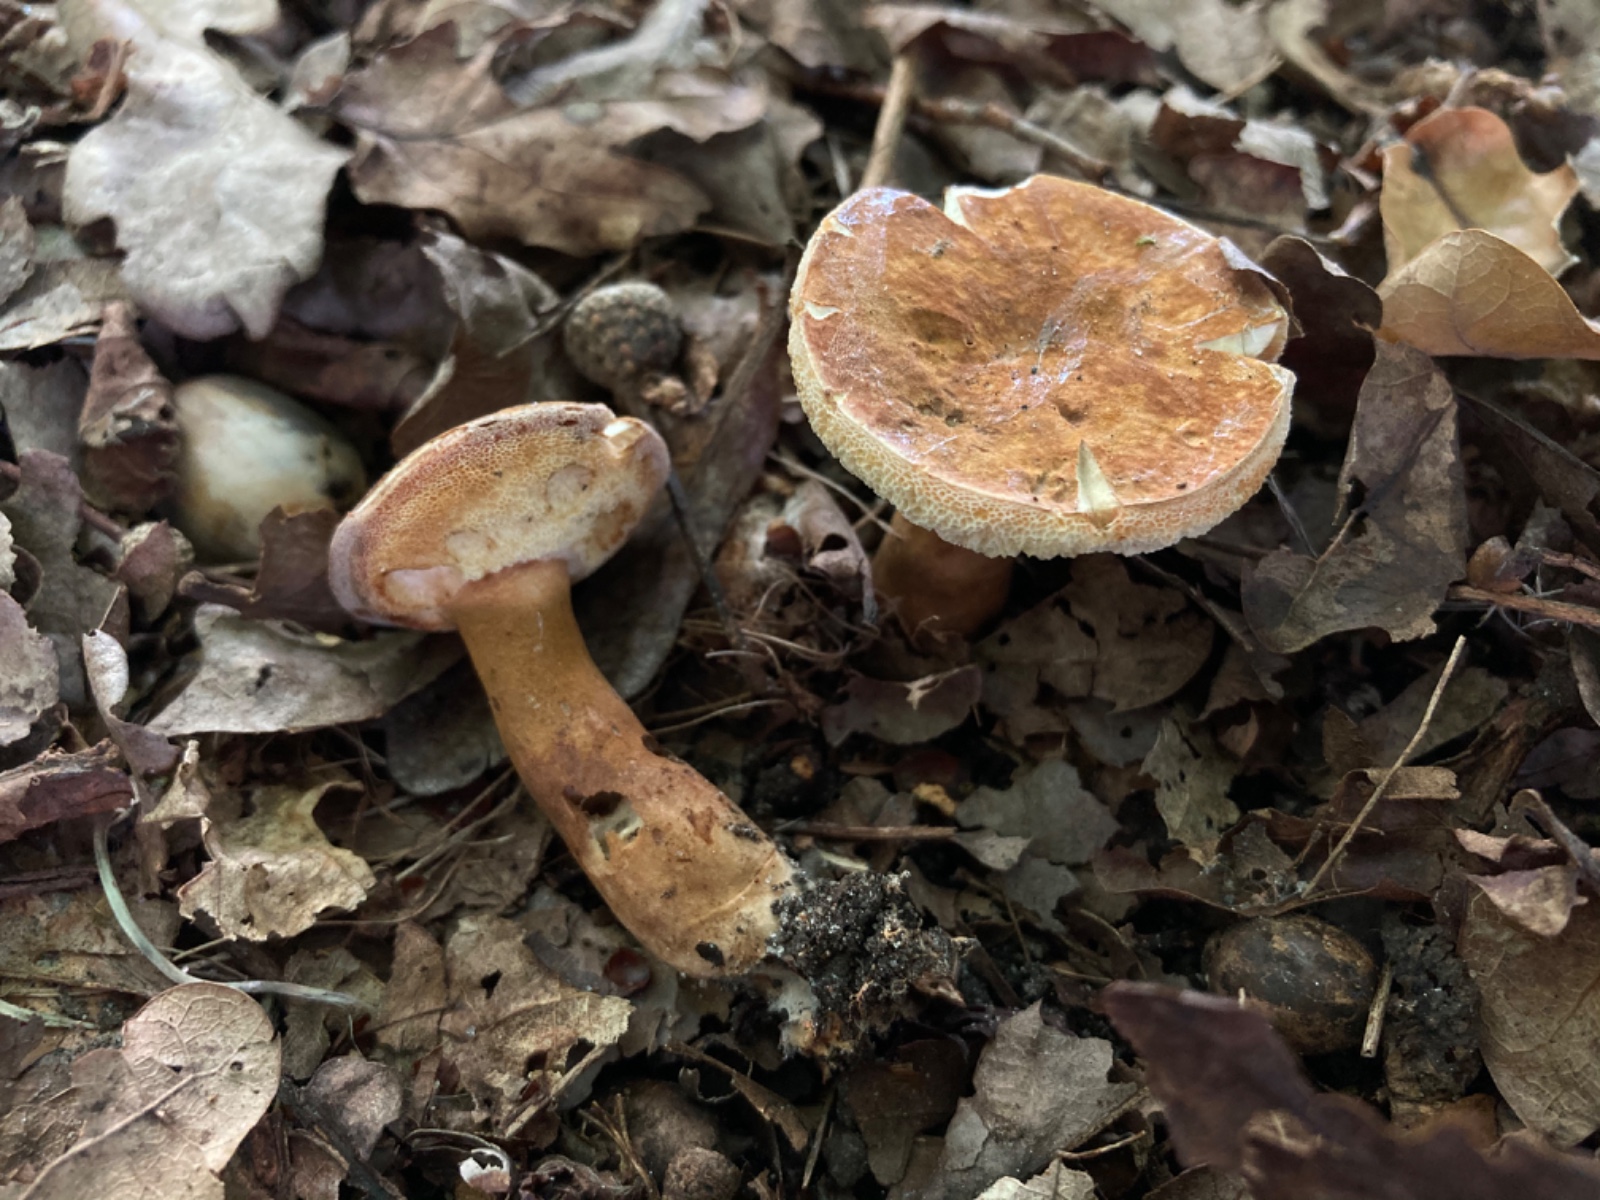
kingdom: Fungi
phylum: Basidiomycota
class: Agaricomycetes
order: Boletales
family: Gyroporaceae
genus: Gyroporus
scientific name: Gyroporus castaneus
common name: kastanie-kammerrørhat
